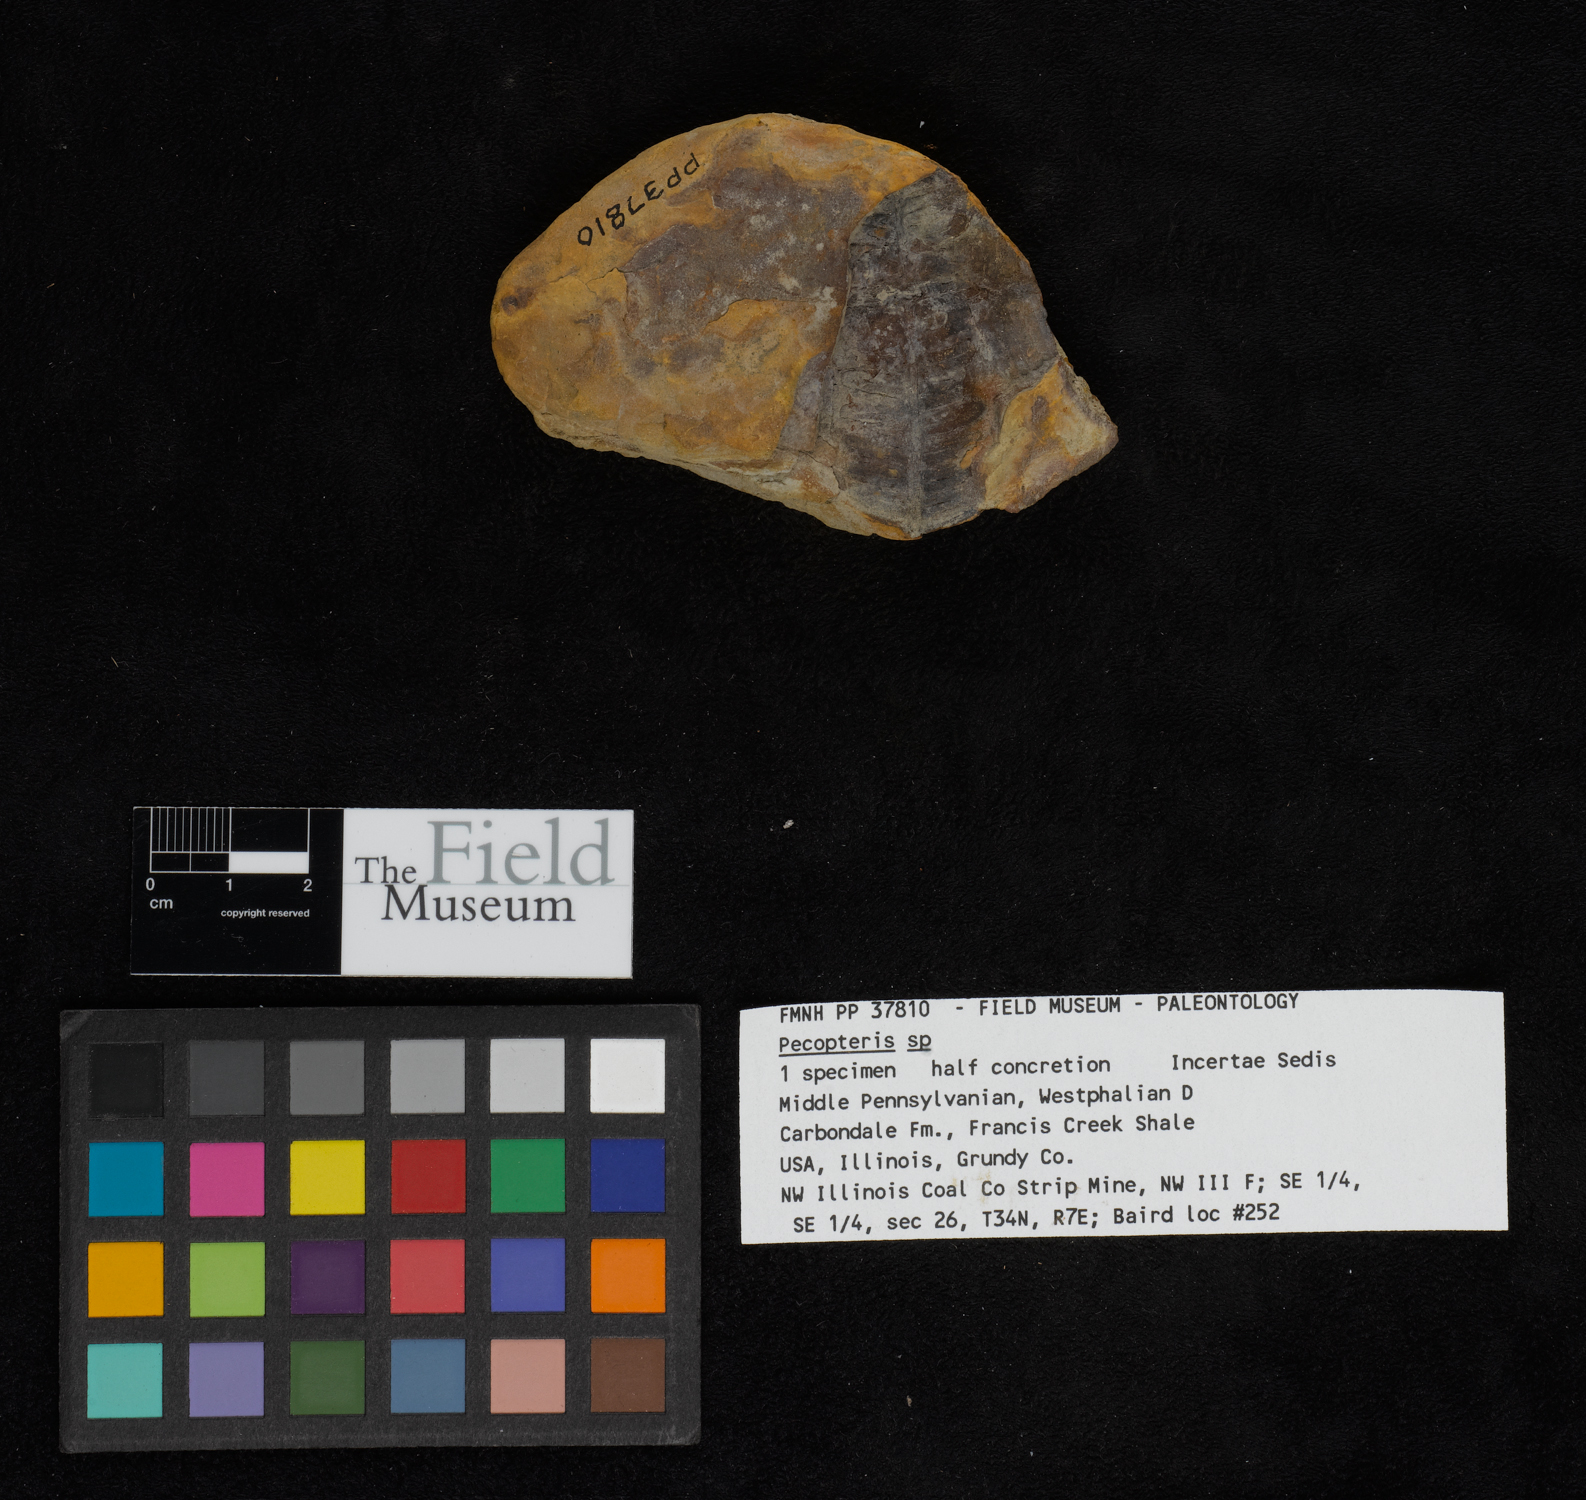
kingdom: Plantae
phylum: Tracheophyta
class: Polypodiopsida
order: Marattiales
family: Asterothecaceae
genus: Pecopteris
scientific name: Pecopteris
